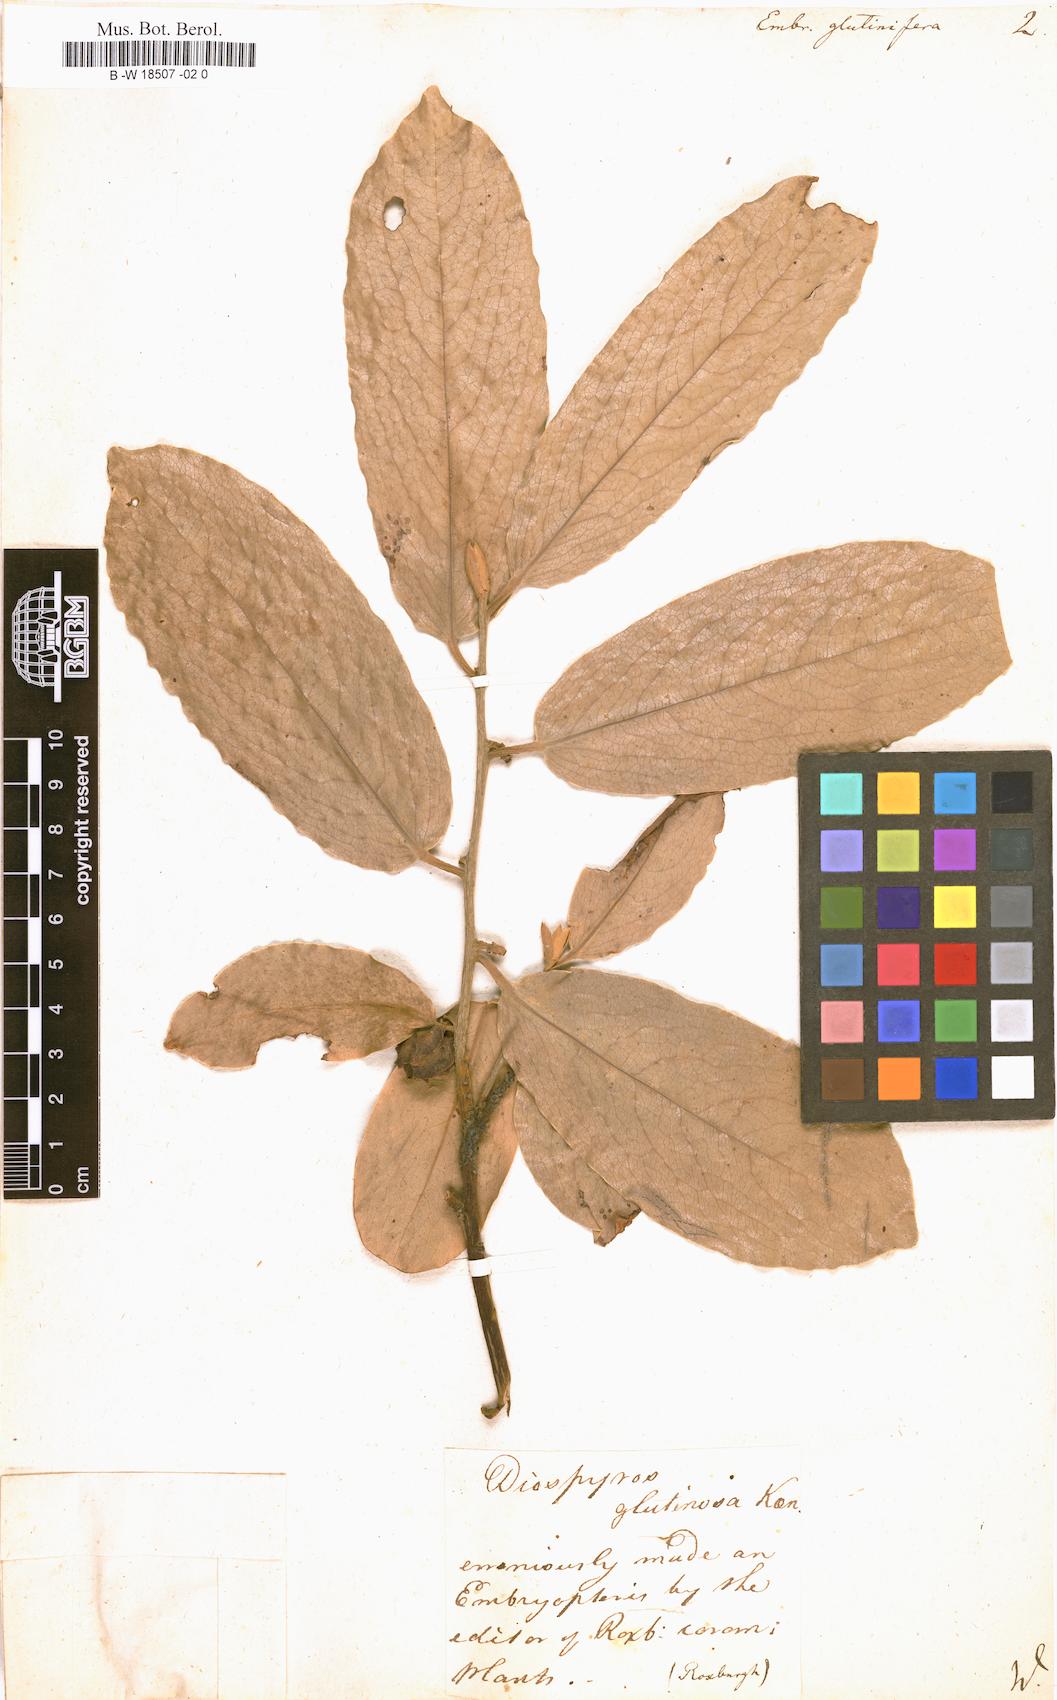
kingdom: Plantae
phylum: Tracheophyta
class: Magnoliopsida
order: Ericales
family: Ebenaceae
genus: Diospyros
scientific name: Diospyros malabarica
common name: Mountain ebony
